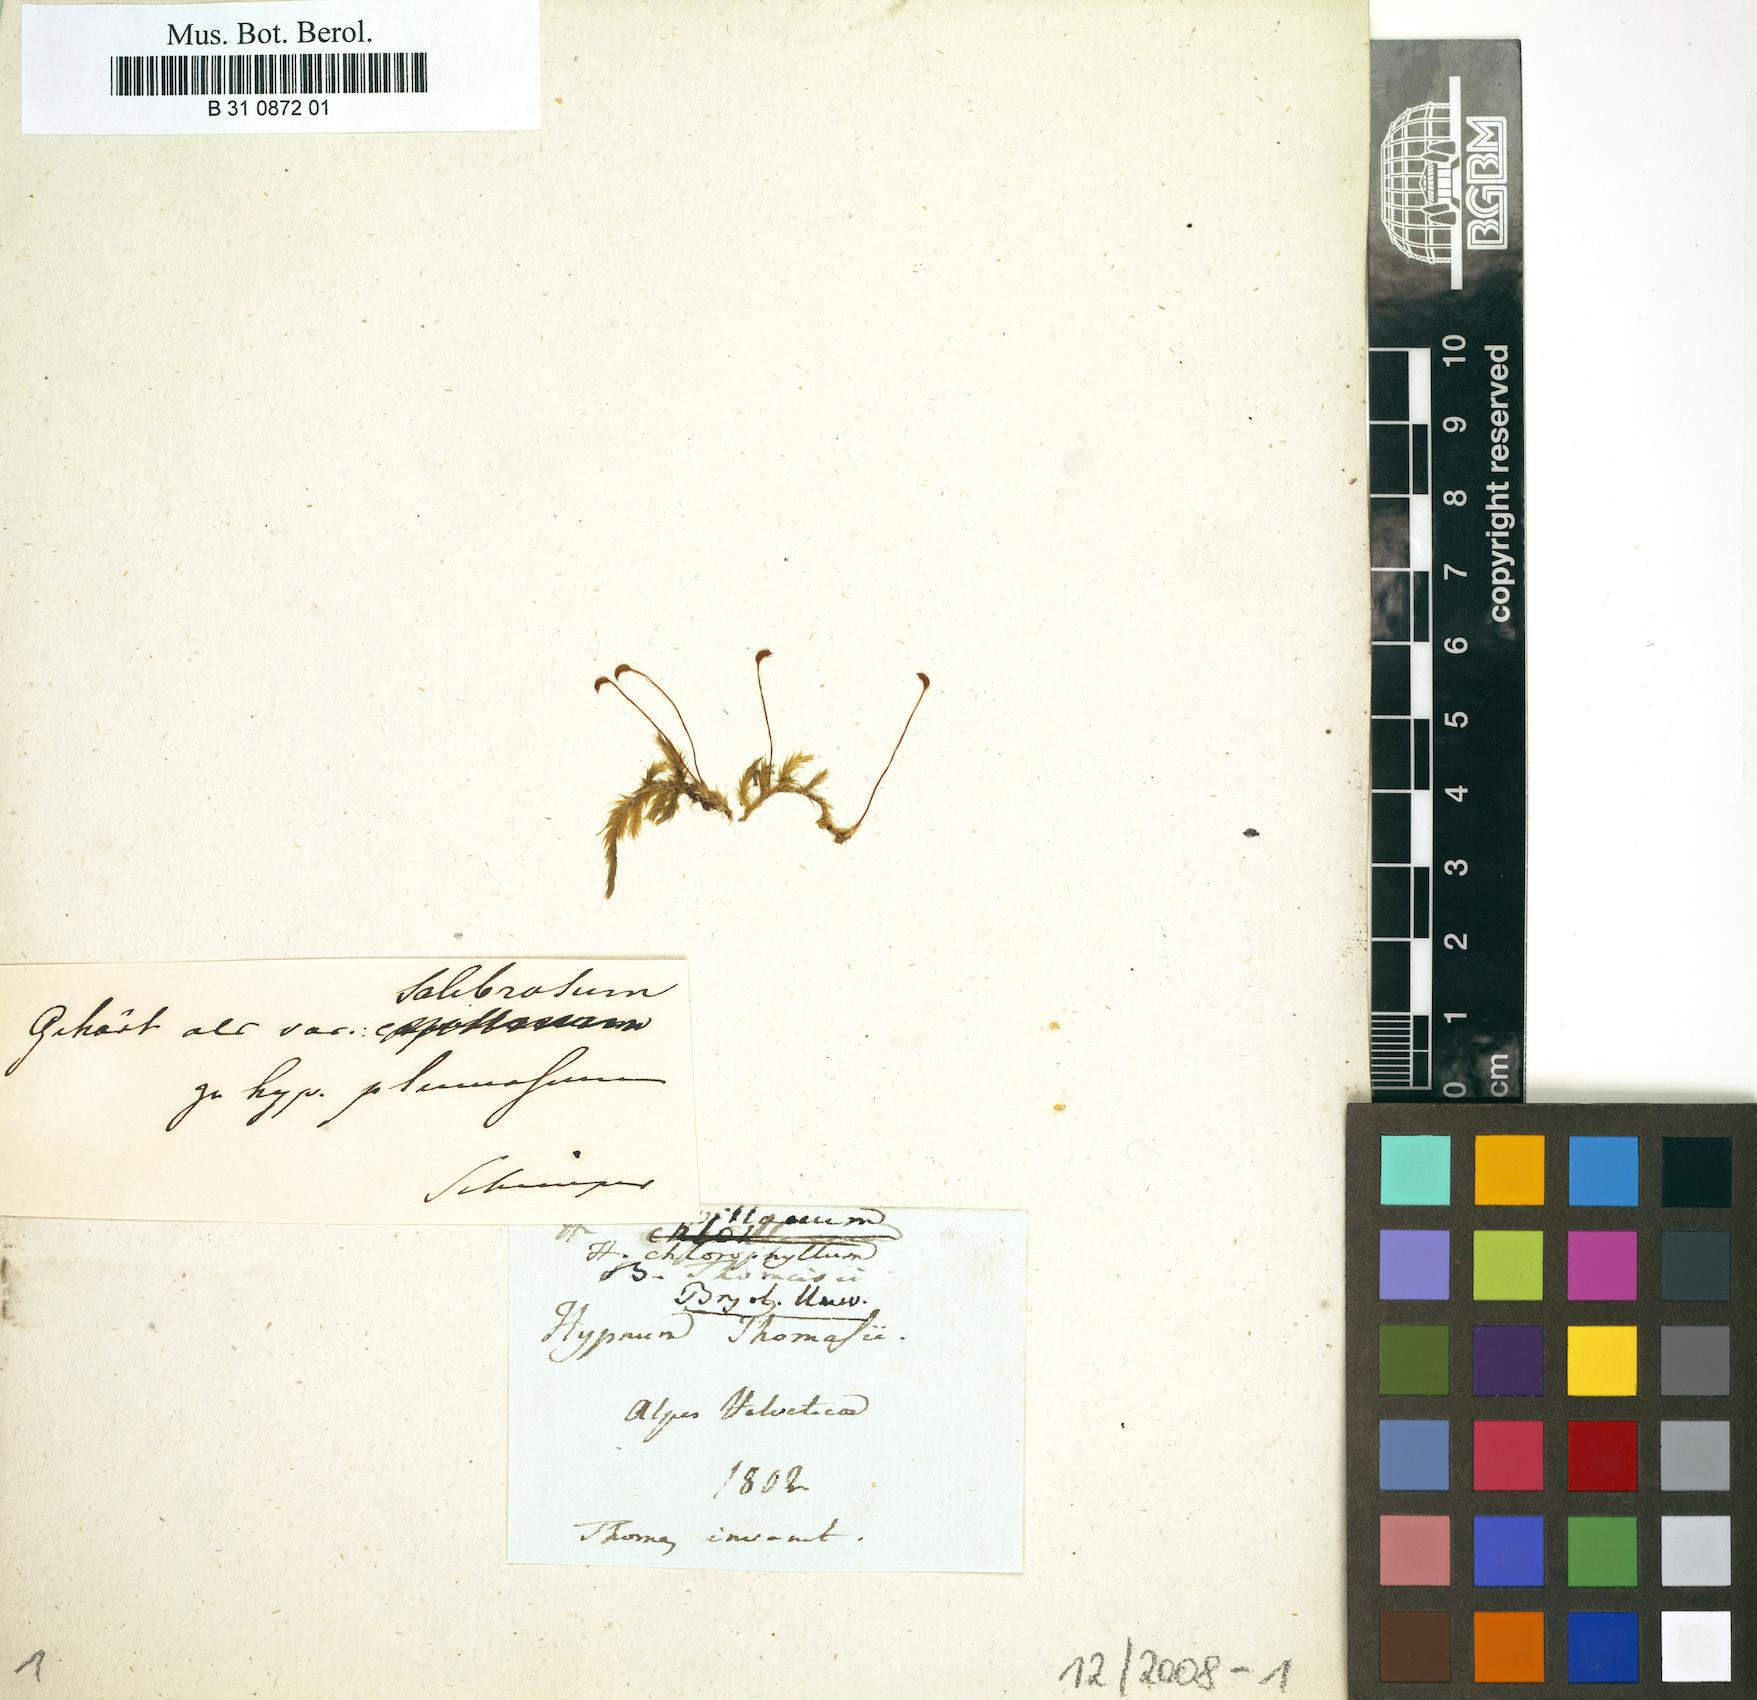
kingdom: Plantae
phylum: Bryophyta
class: Bryopsida
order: Hypnales
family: Brachytheciaceae
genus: Brachythecium
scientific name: Brachythecium salebrosum
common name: Smooth-stalk feather-moss
